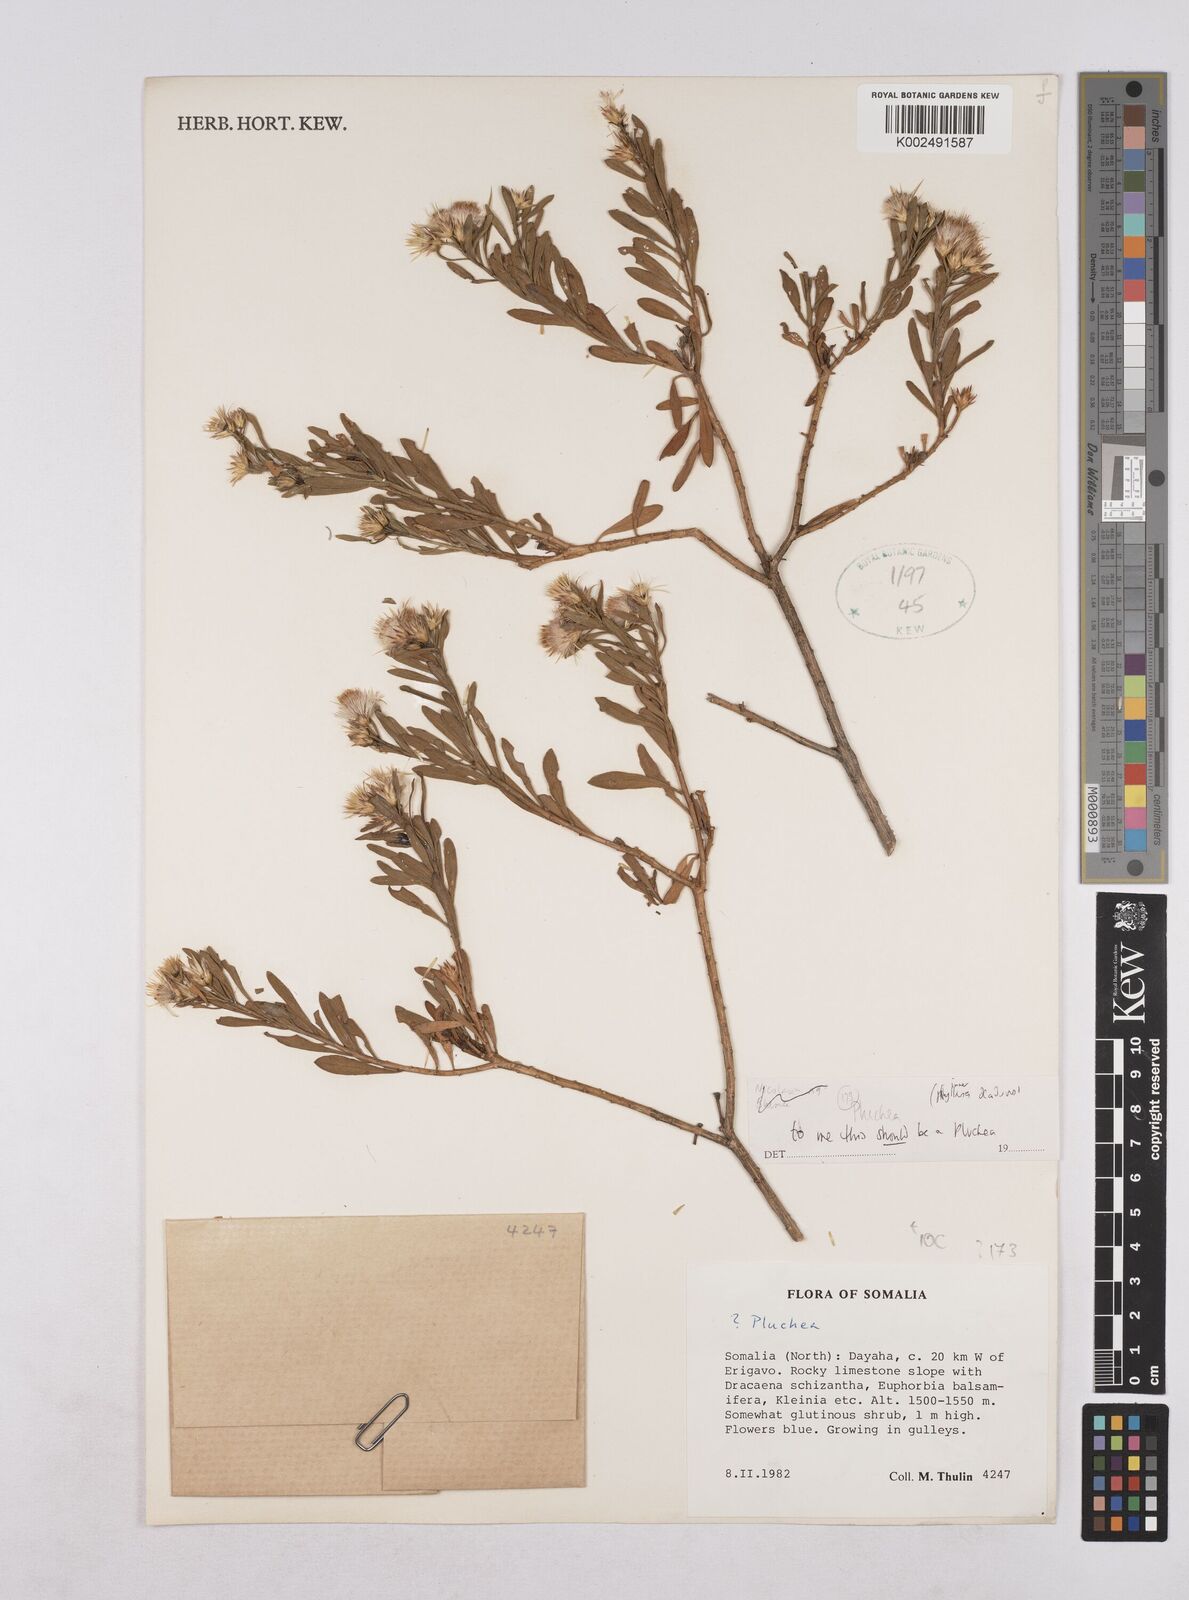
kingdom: Plantae
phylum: Tracheophyta
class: Magnoliopsida
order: Asterales
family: Asteraceae
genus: Pluchea
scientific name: Pluchea
